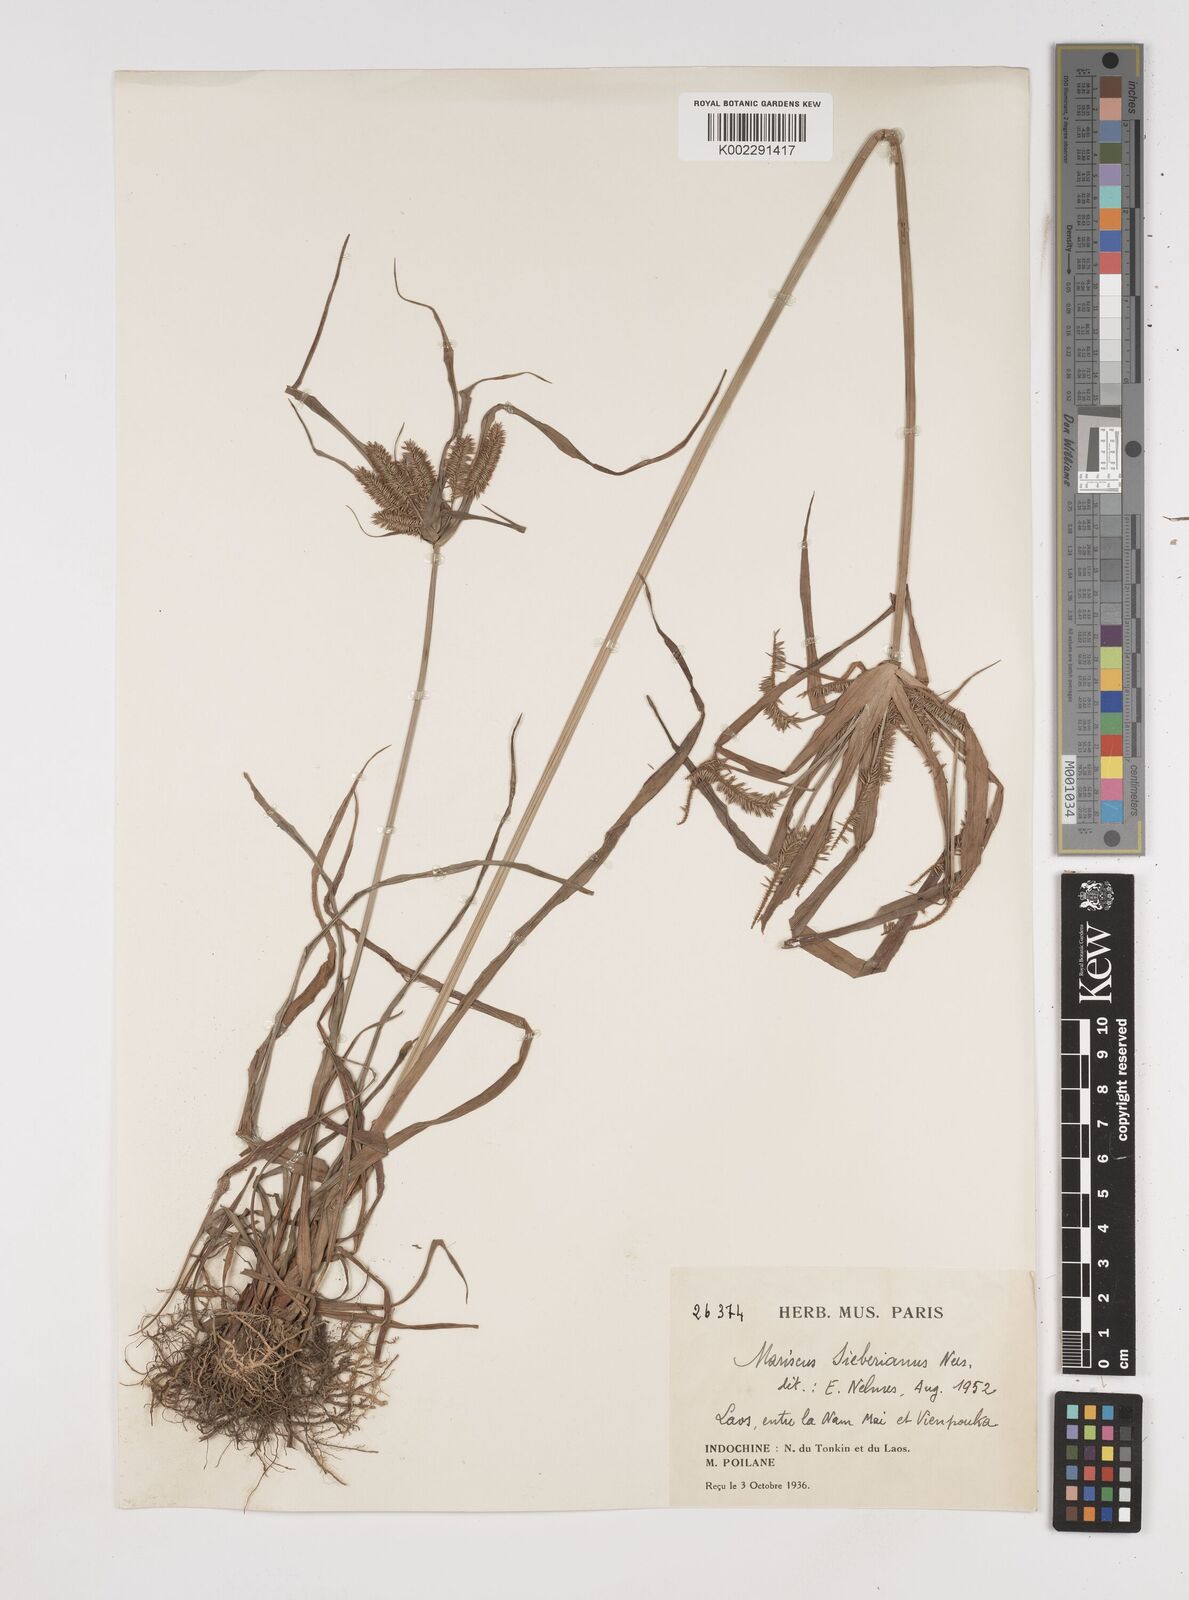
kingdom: Plantae
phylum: Tracheophyta
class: Liliopsida
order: Poales
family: Cyperaceae
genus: Cyperus
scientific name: Cyperus cyperoides
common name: Pacific island flat sedge
